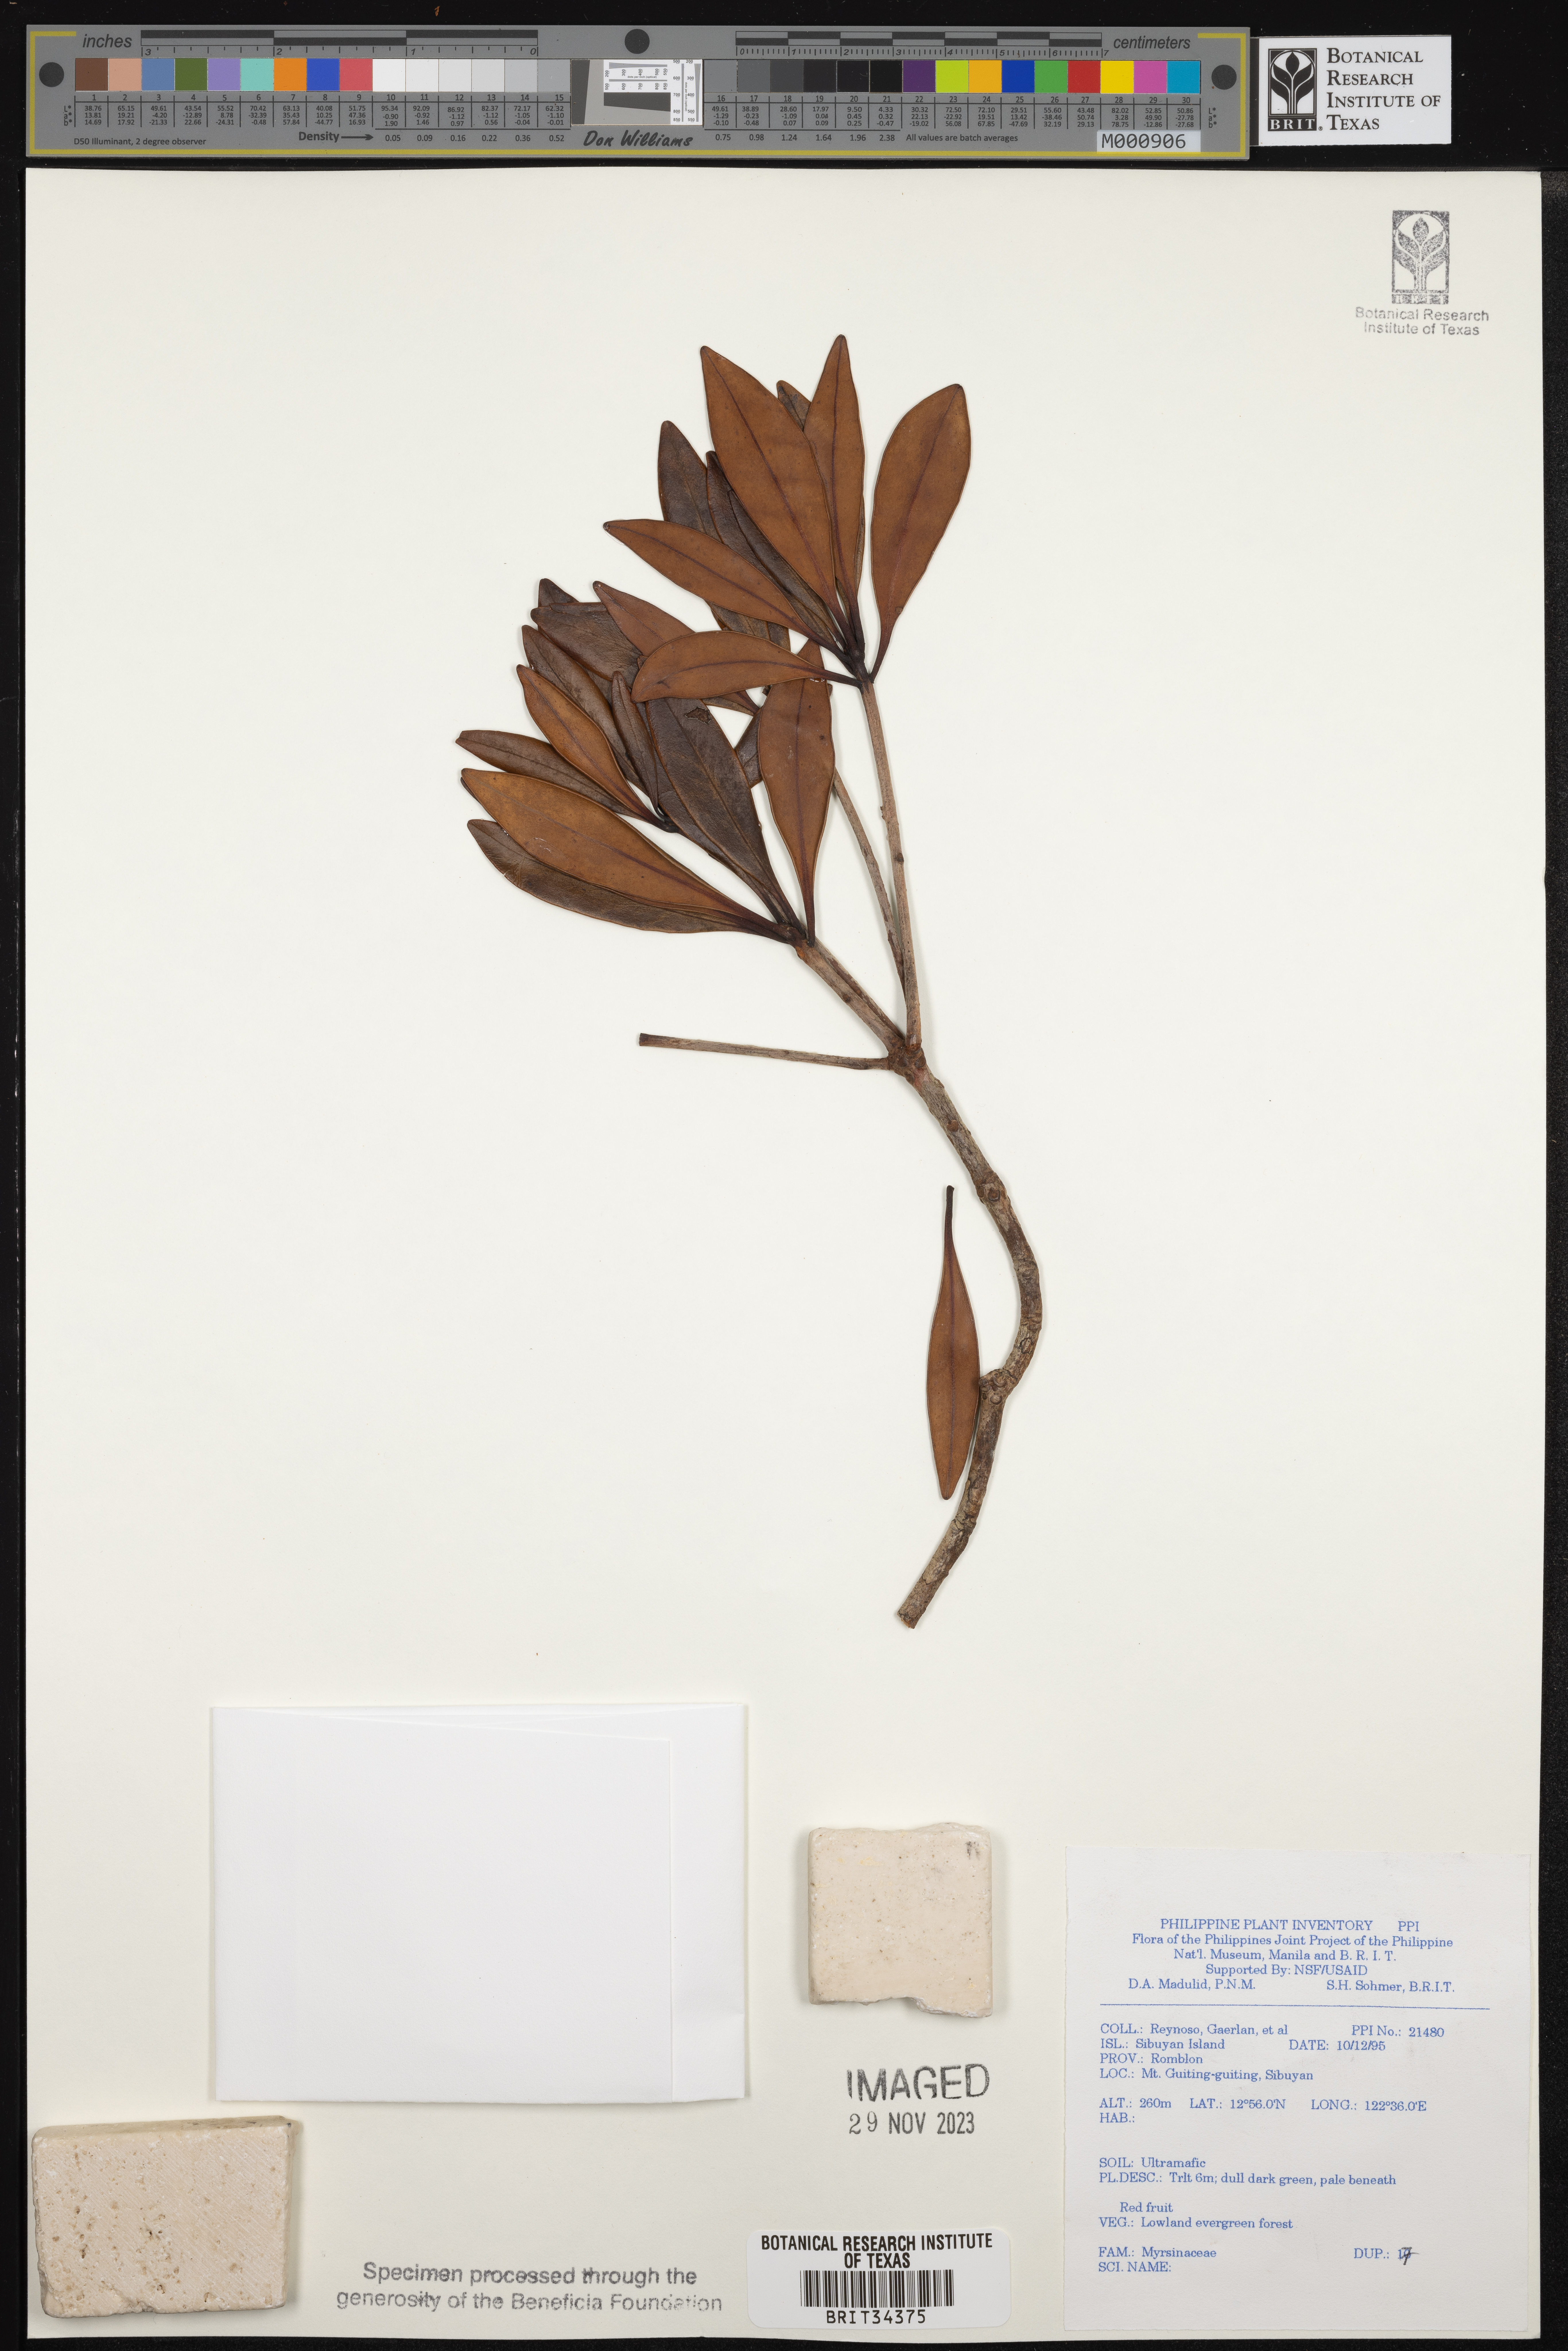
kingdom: Plantae
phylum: Tracheophyta
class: Magnoliopsida
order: Ericales
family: Primulaceae
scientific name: Primulaceae
